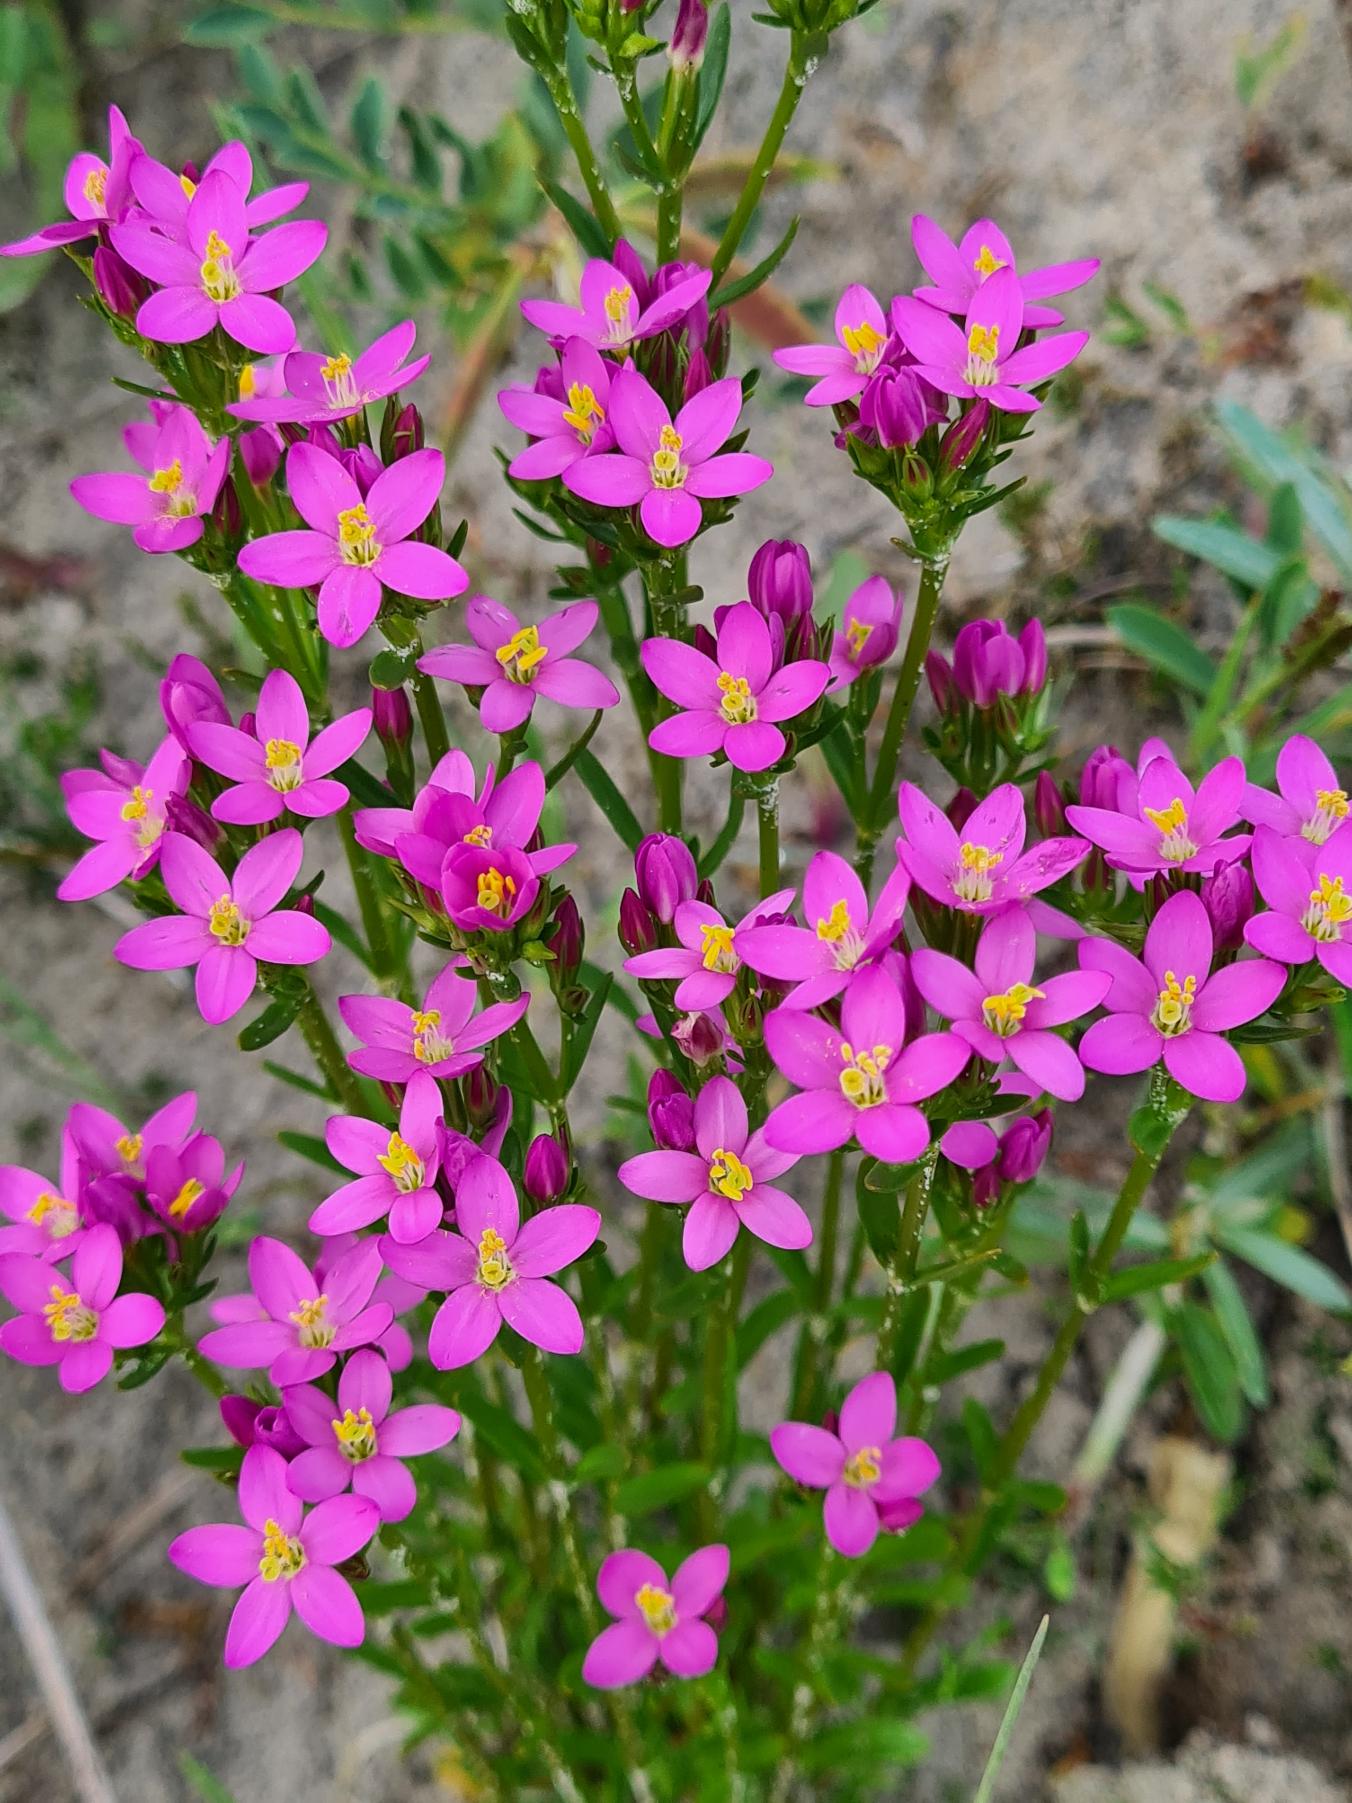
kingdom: Plantae
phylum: Tracheophyta
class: Magnoliopsida
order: Gentianales
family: Gentianaceae
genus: Centaurium
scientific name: Centaurium littorale
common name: Strand-tusindgylden
